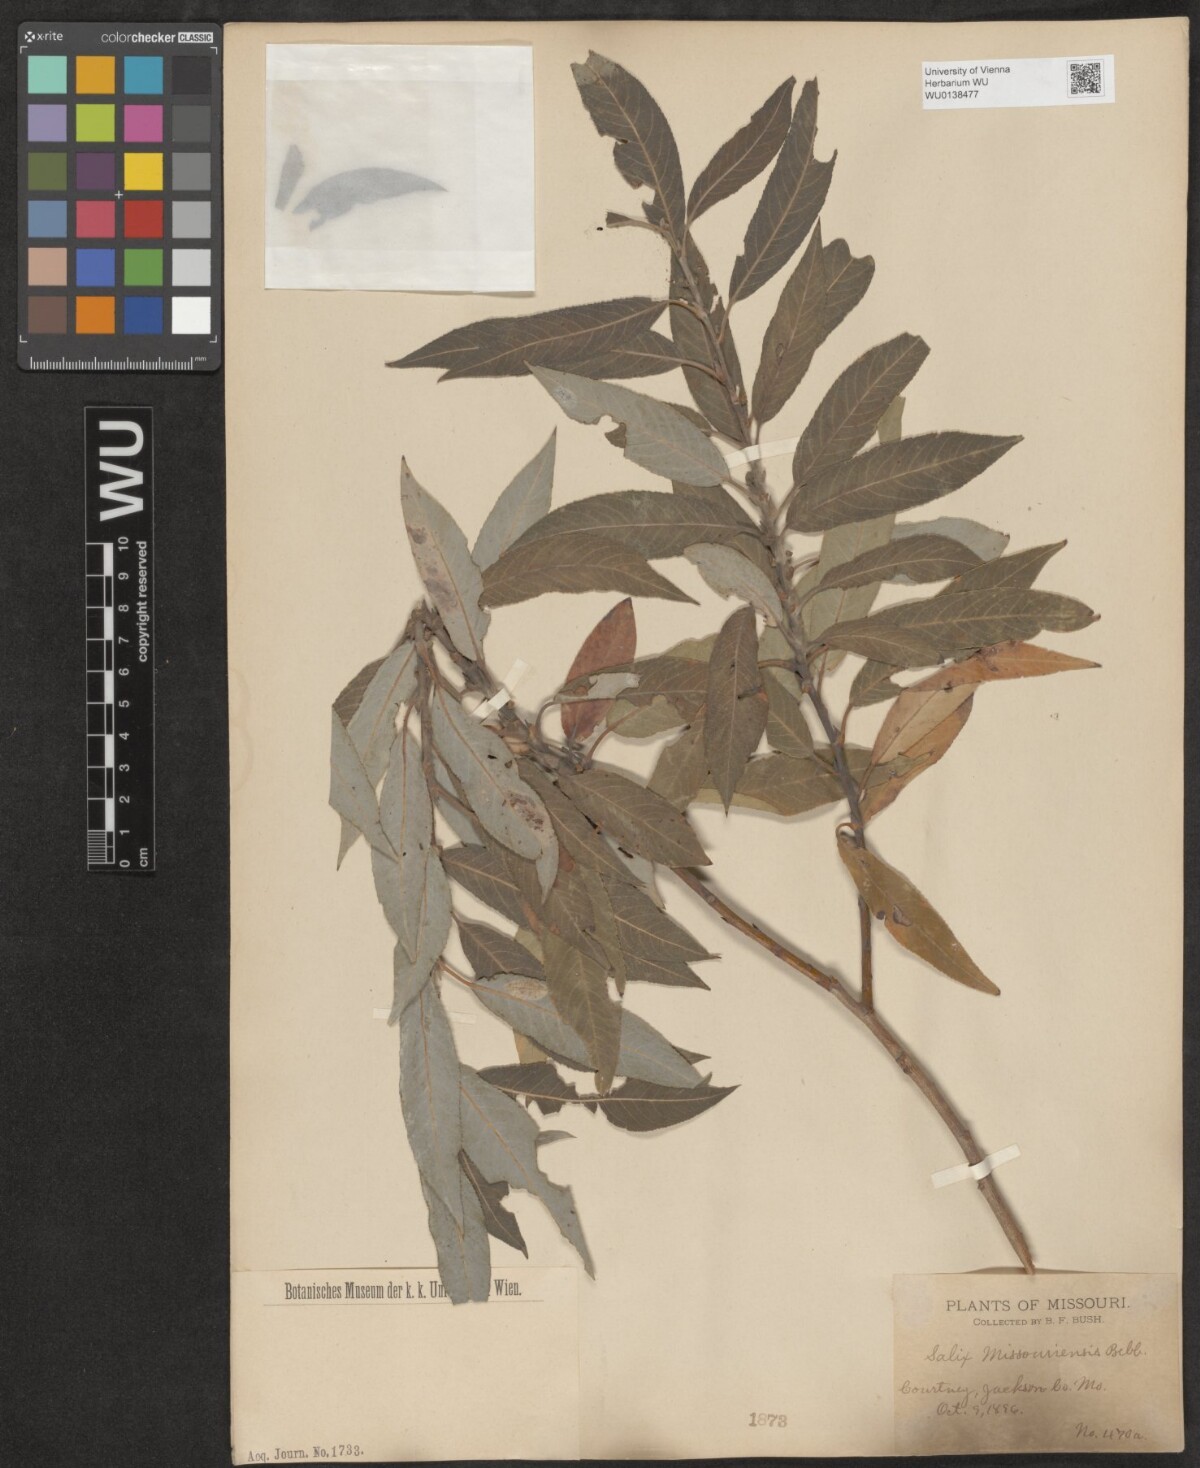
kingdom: Plantae
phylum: Tracheophyta
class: Magnoliopsida
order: Malpighiales
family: Salicaceae
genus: Salix
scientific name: Salix eriocephala
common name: Heart-leaved willow
